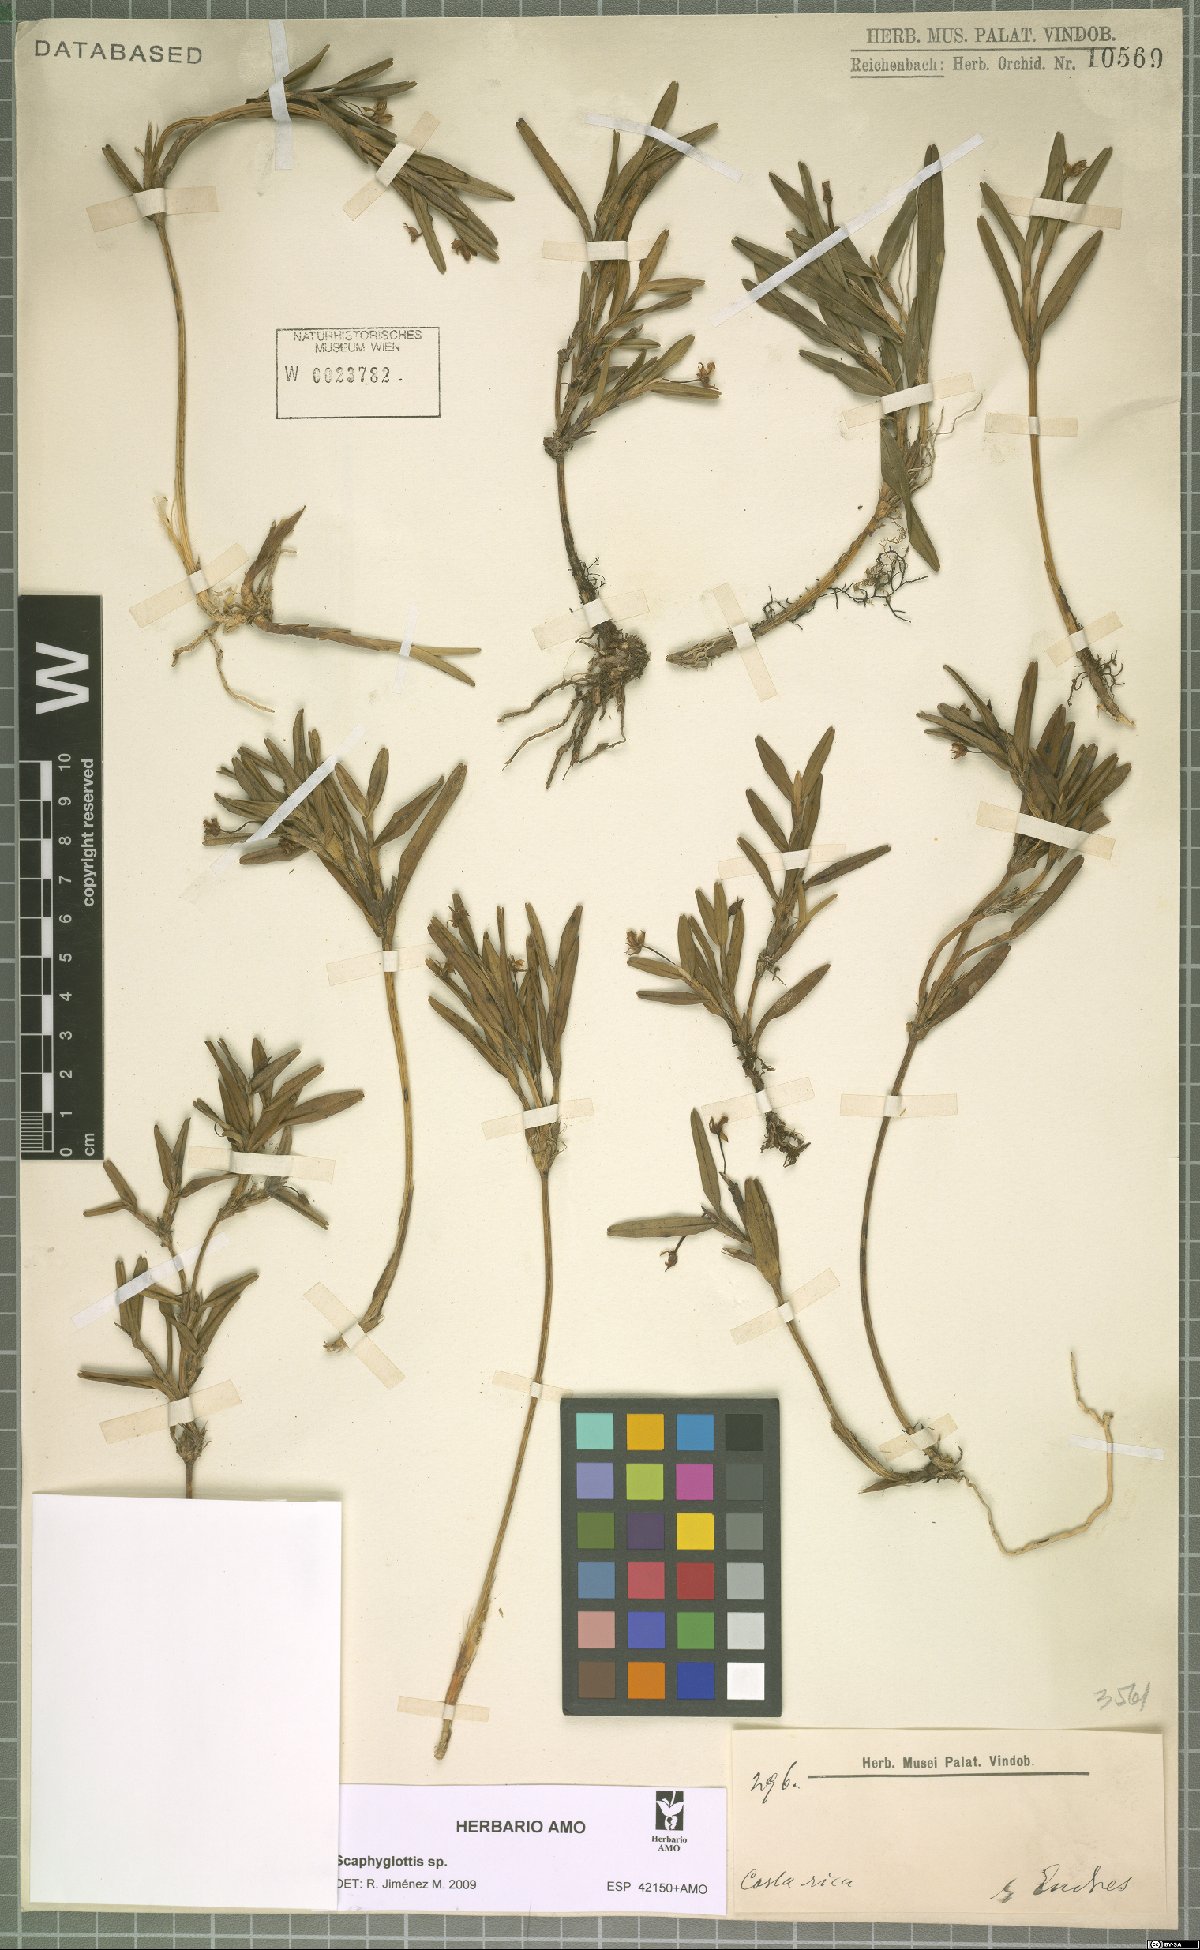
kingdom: Plantae
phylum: Tracheophyta
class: Liliopsida
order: Asparagales
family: Orchidaceae
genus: Scaphyglottis
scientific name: Scaphyglottis
